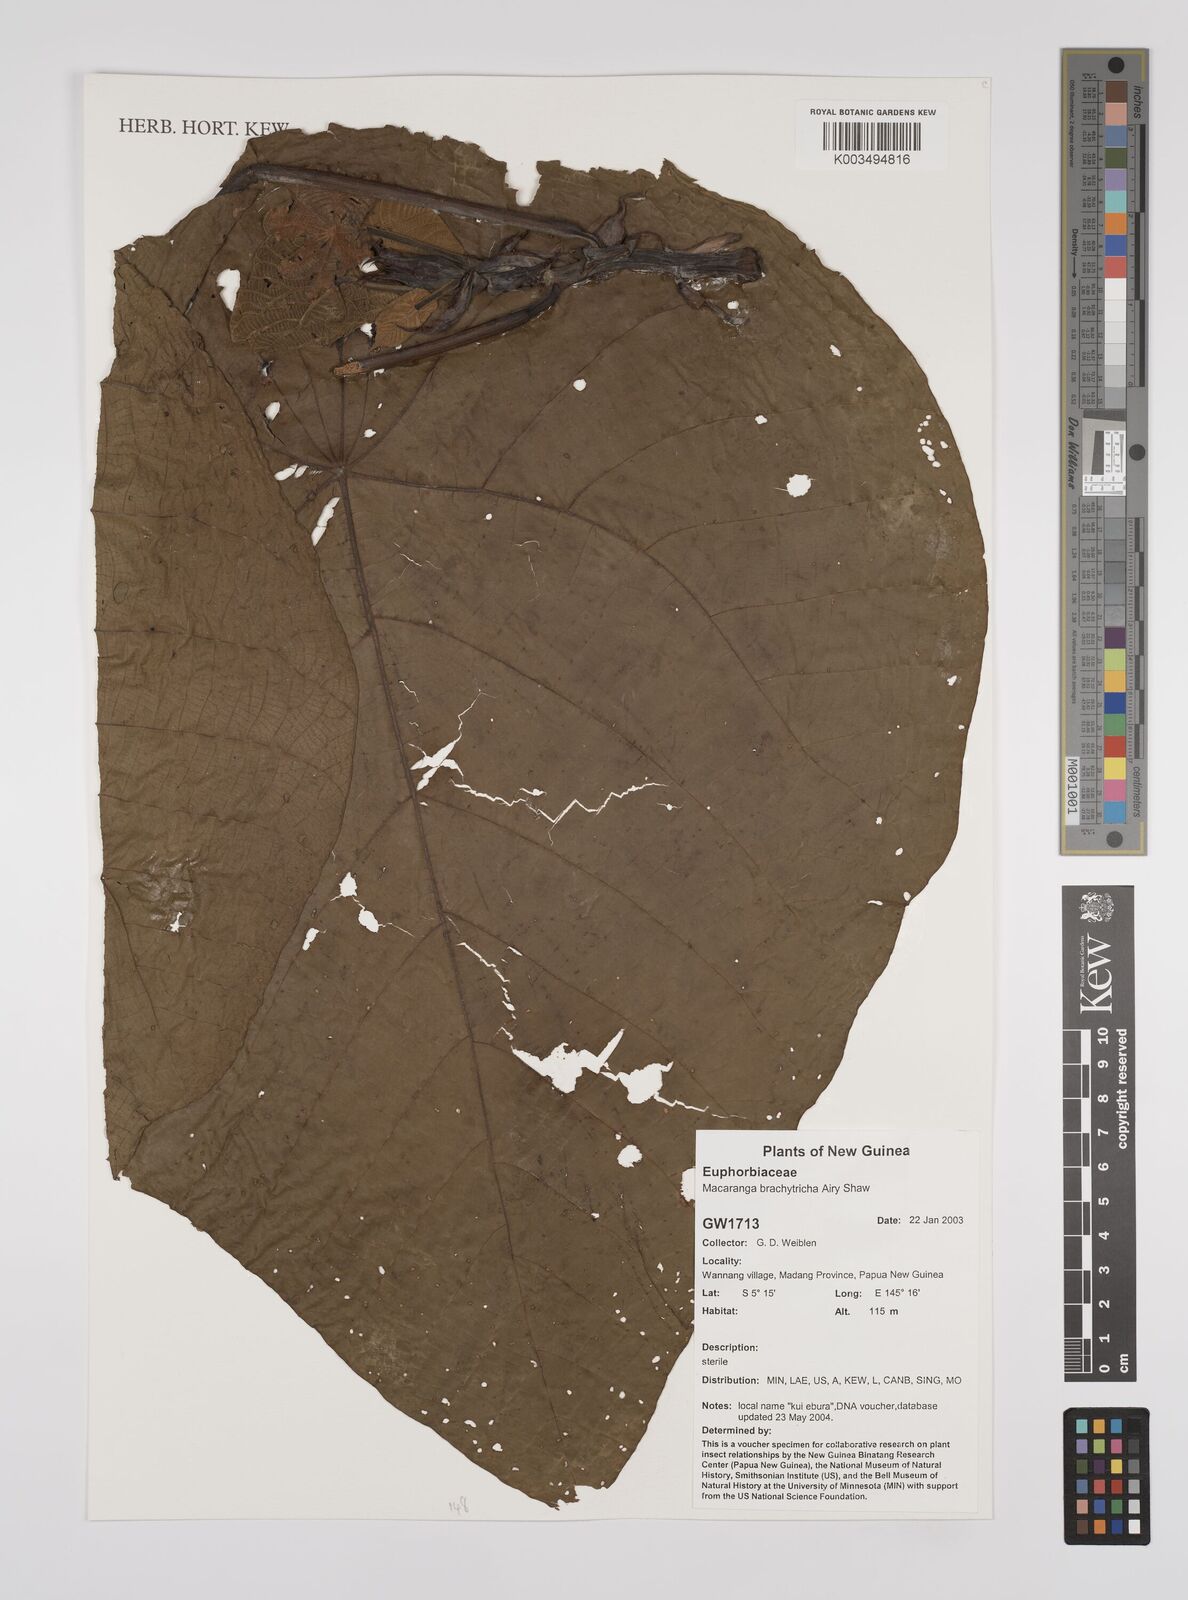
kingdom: Plantae
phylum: Tracheophyta
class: Magnoliopsida
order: Malpighiales
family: Euphorbiaceae
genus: Macaranga
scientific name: Macaranga brachythyrsa
